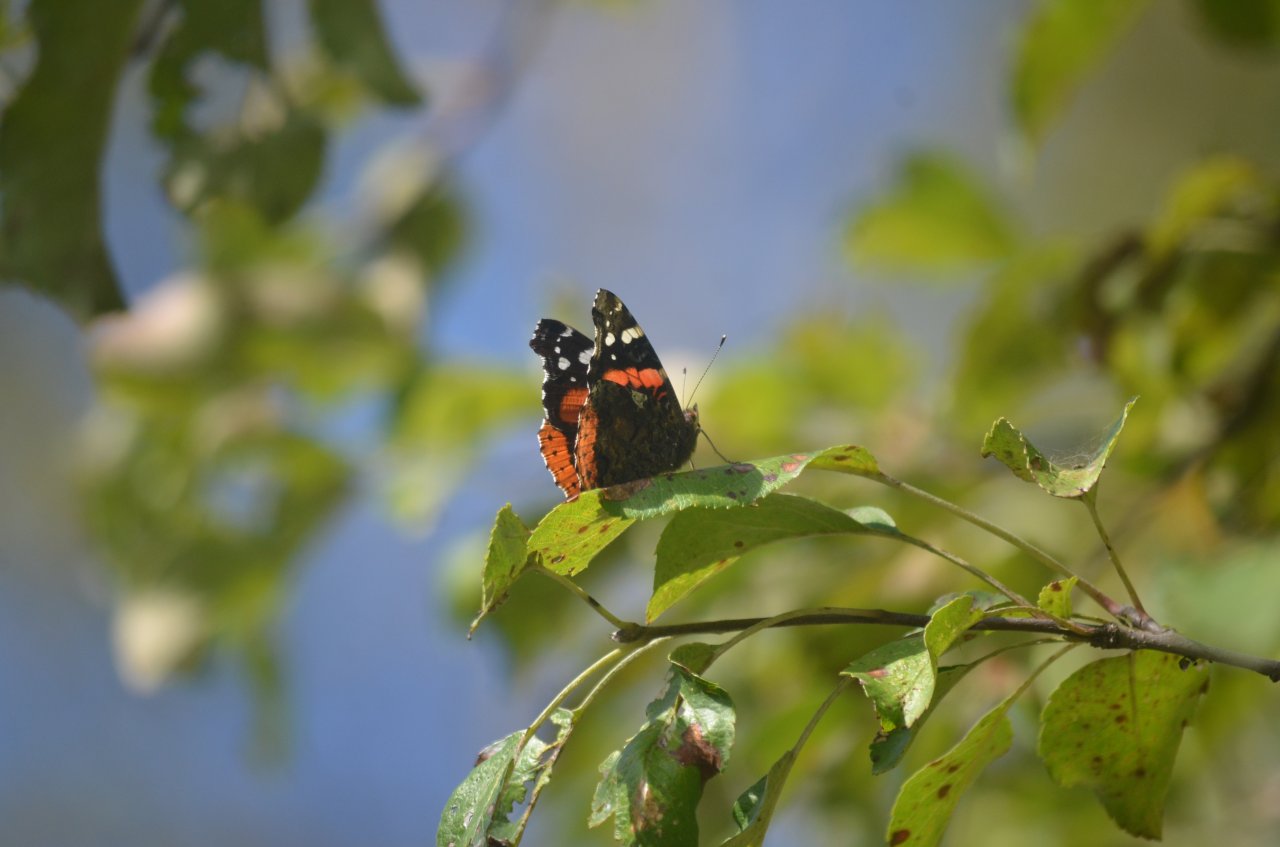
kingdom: Animalia
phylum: Arthropoda
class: Insecta
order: Lepidoptera
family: Nymphalidae
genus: Vanessa
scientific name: Vanessa atalanta
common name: Red Admiral
